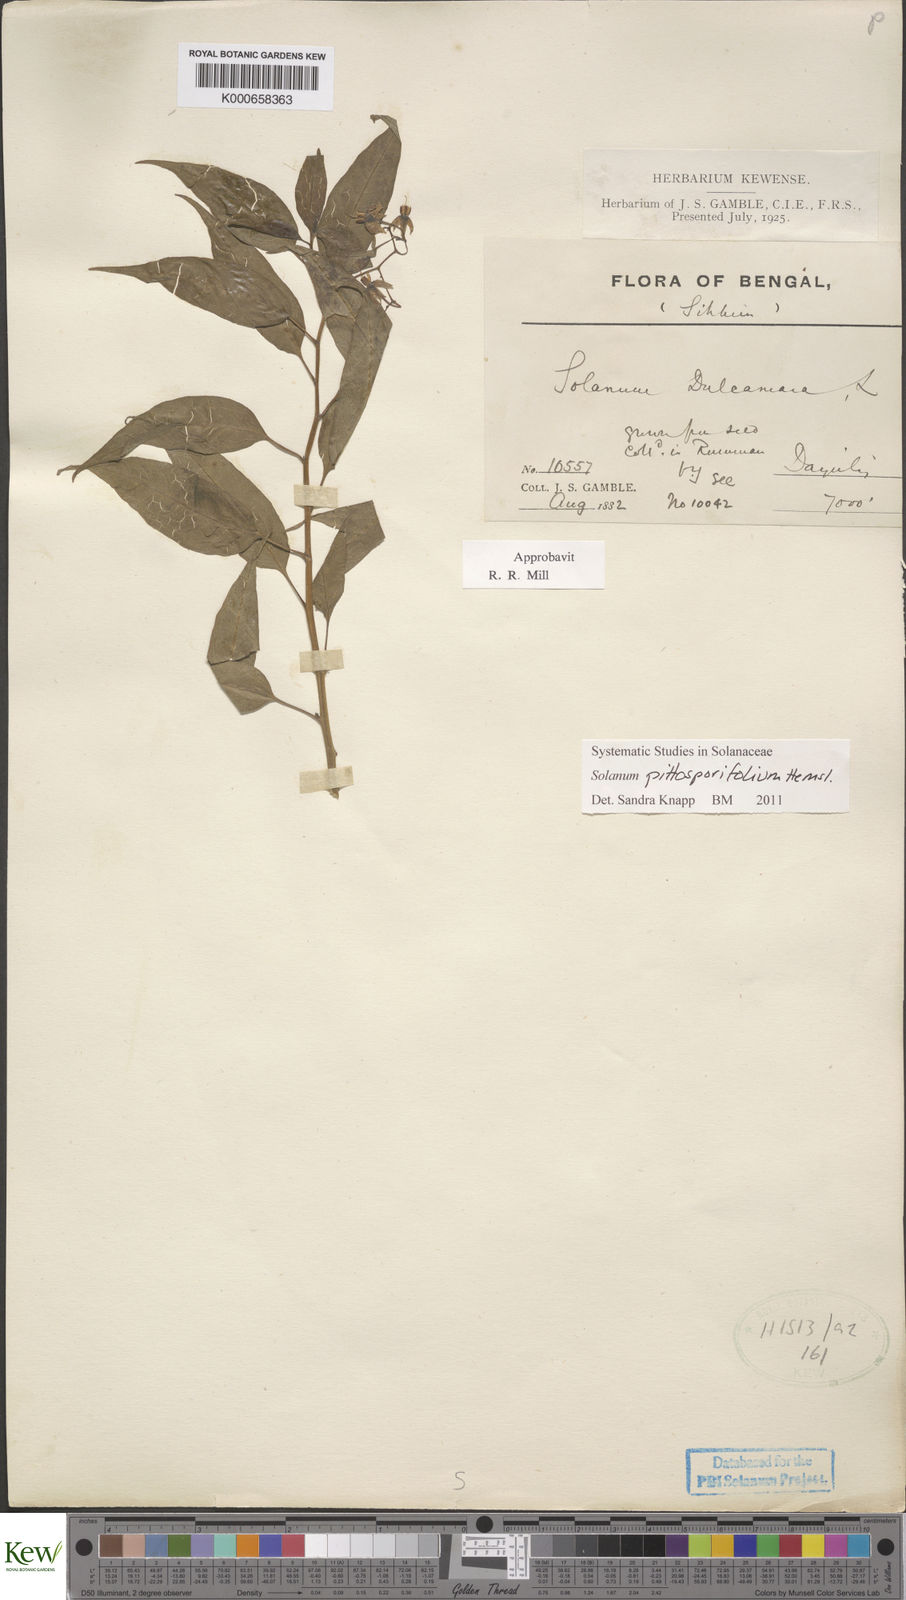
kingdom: Plantae
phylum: Tracheophyta
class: Magnoliopsida
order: Solanales
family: Solanaceae
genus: Solanum
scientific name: Solanum pittosporifolium
